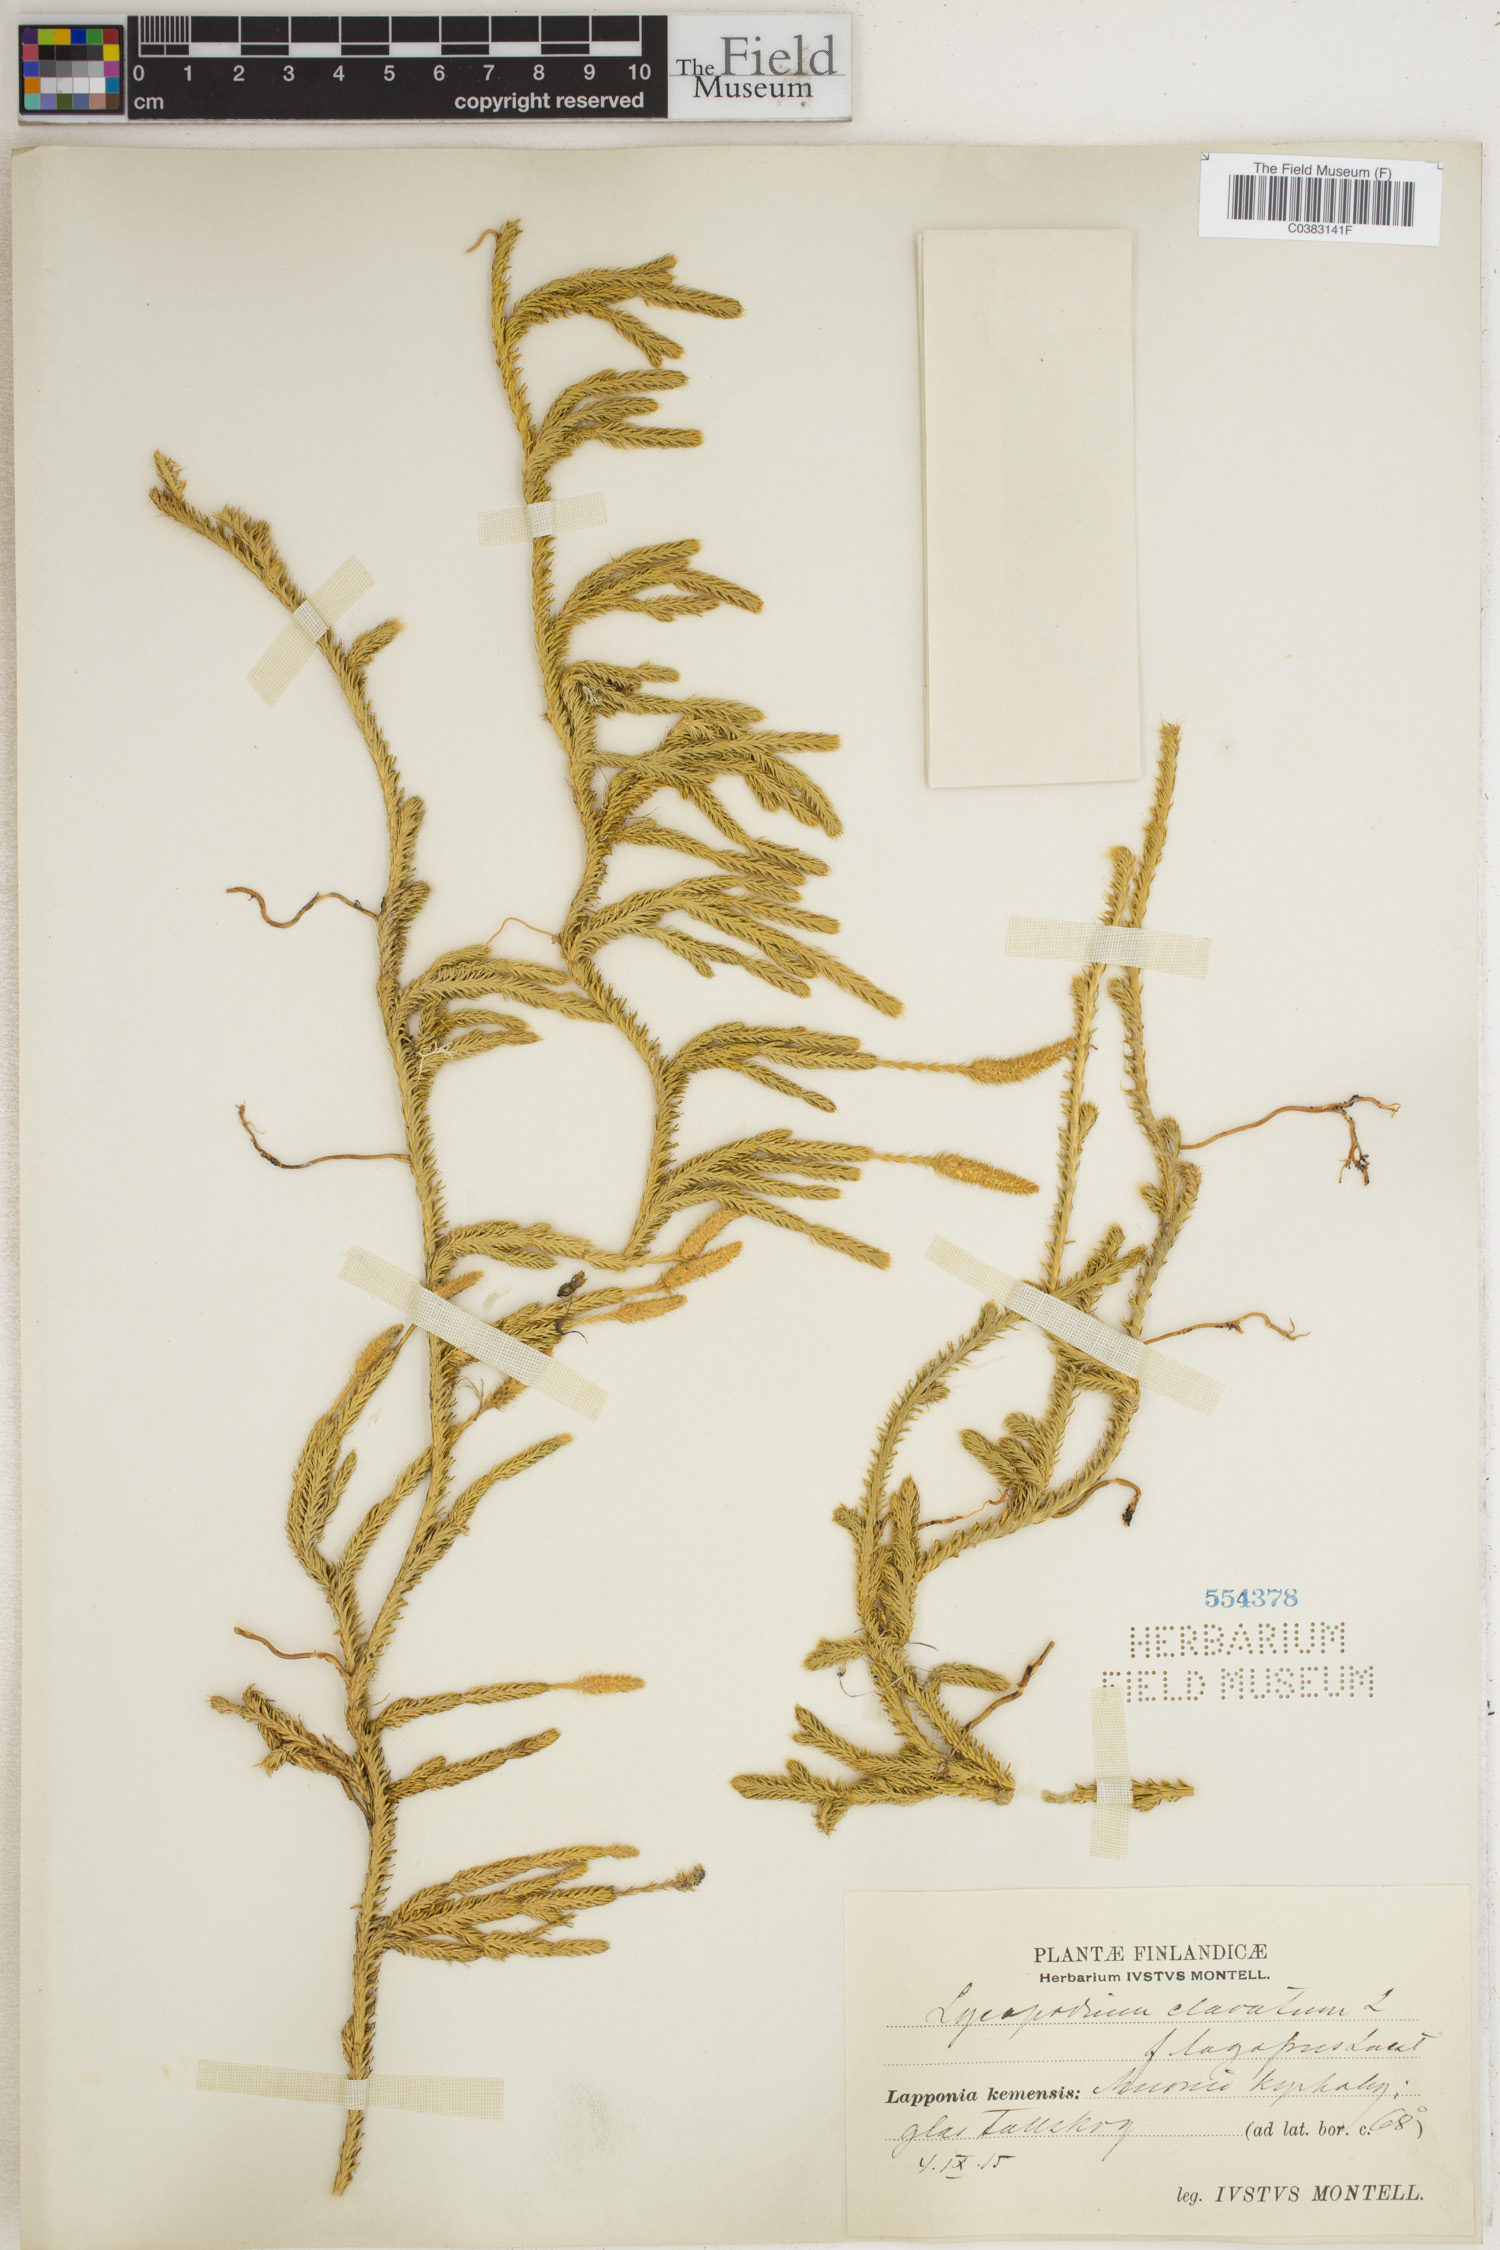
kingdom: Plantae
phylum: Tracheophyta
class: Lycopodiopsida
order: Lycopodiales
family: Lycopodiaceae
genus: Lycopodium
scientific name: Lycopodium clavatum
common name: Stag's-horn clubmoss
